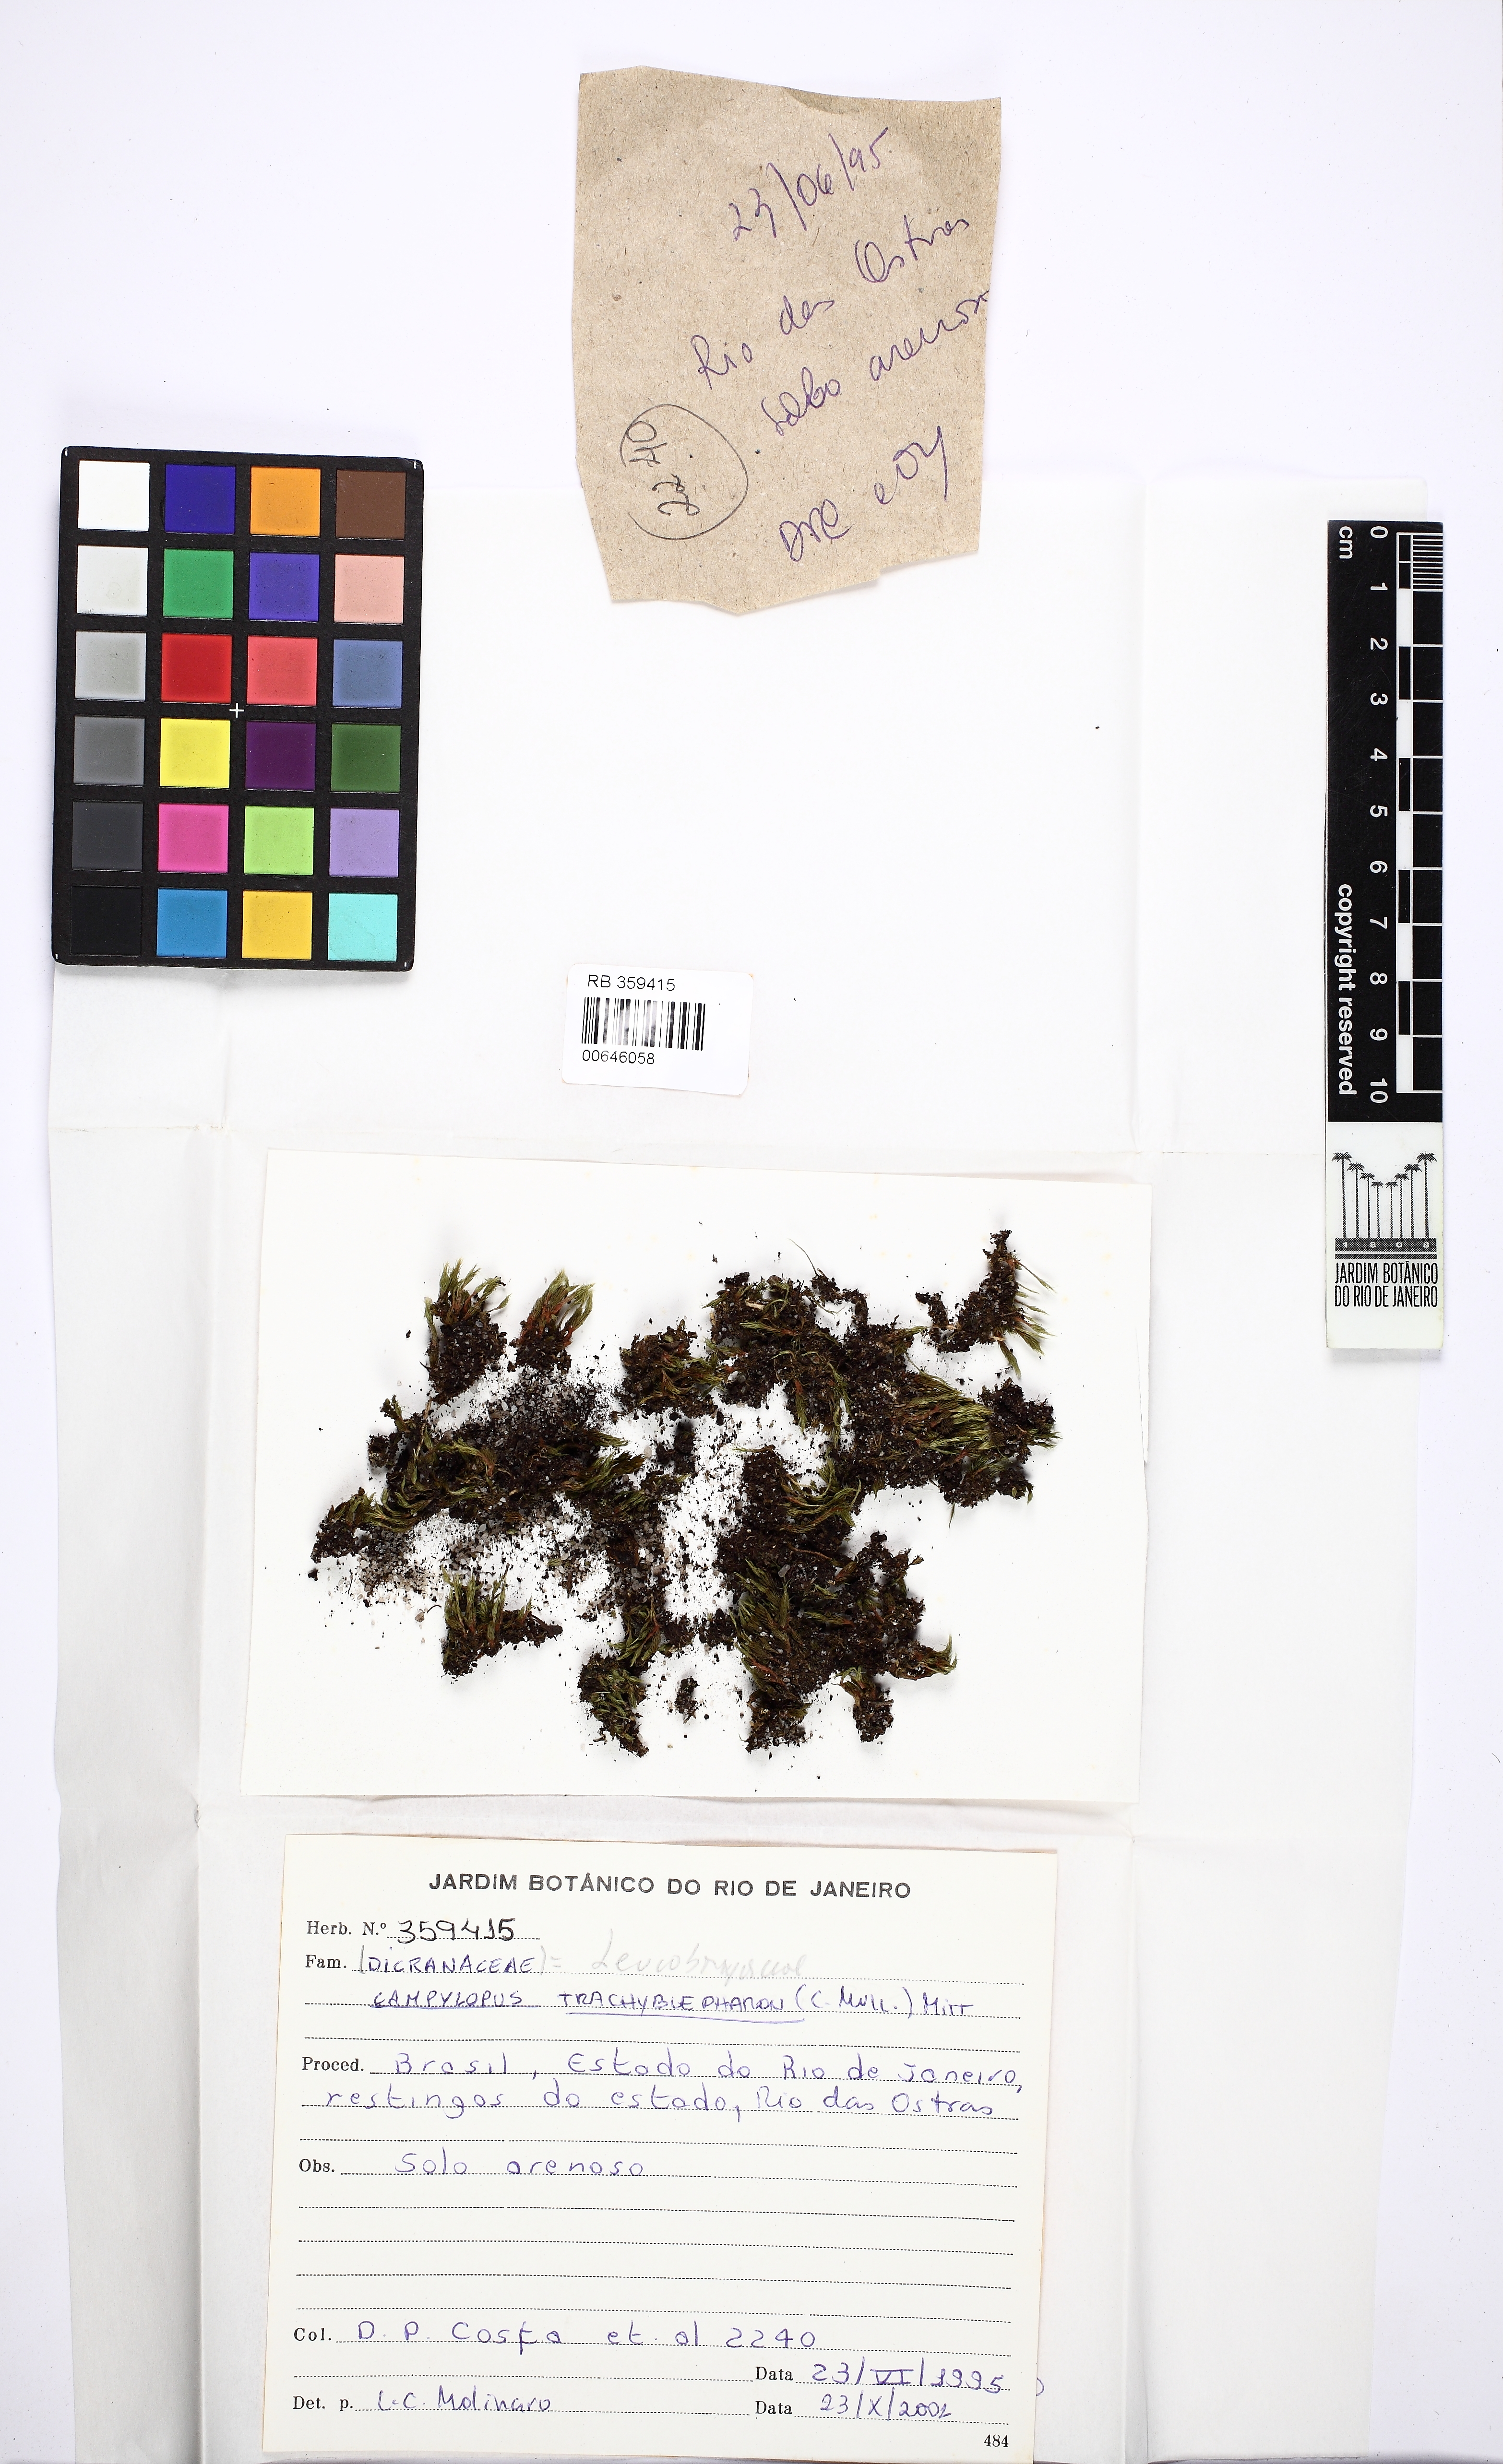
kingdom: Plantae
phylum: Bryophyta
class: Bryopsida
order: Dicranales
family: Leucobryaceae
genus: Campylopus
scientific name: Campylopus trachyblepharon
